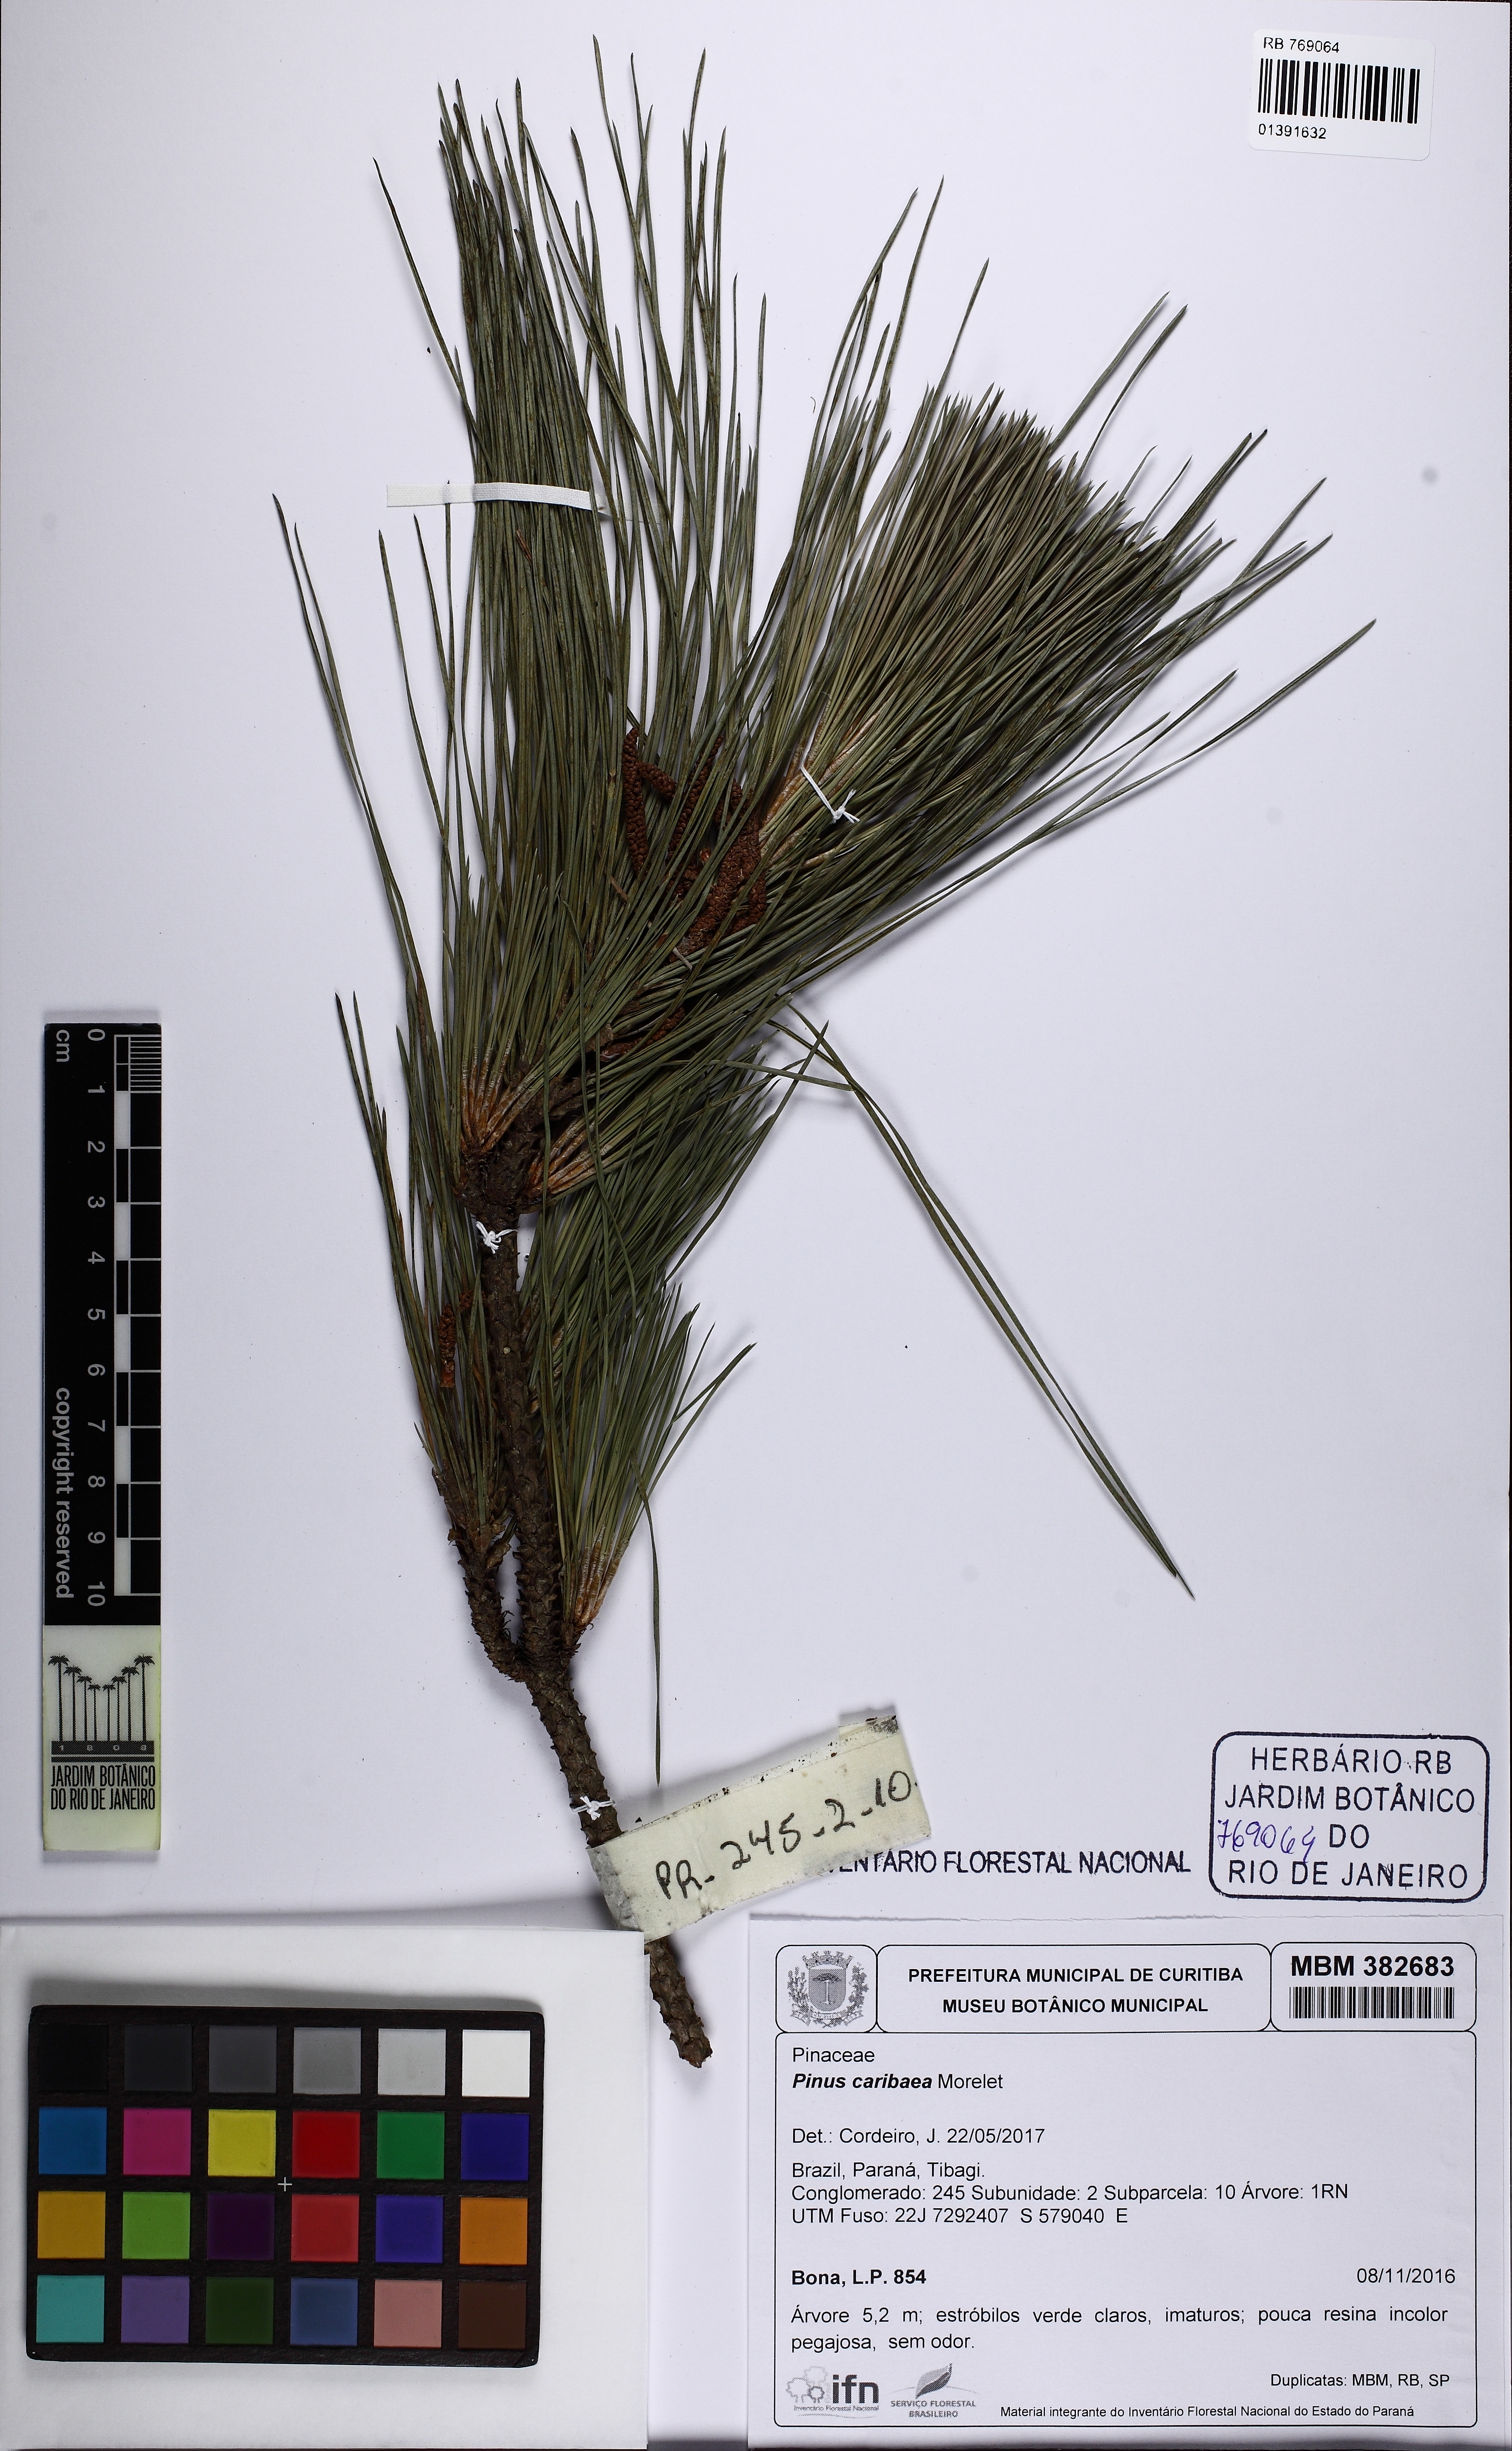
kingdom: Plantae
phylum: Tracheophyta
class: Pinopsida
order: Pinales
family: Pinaceae
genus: Pinus
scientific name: Pinus caribaea
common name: Caribbean pine
